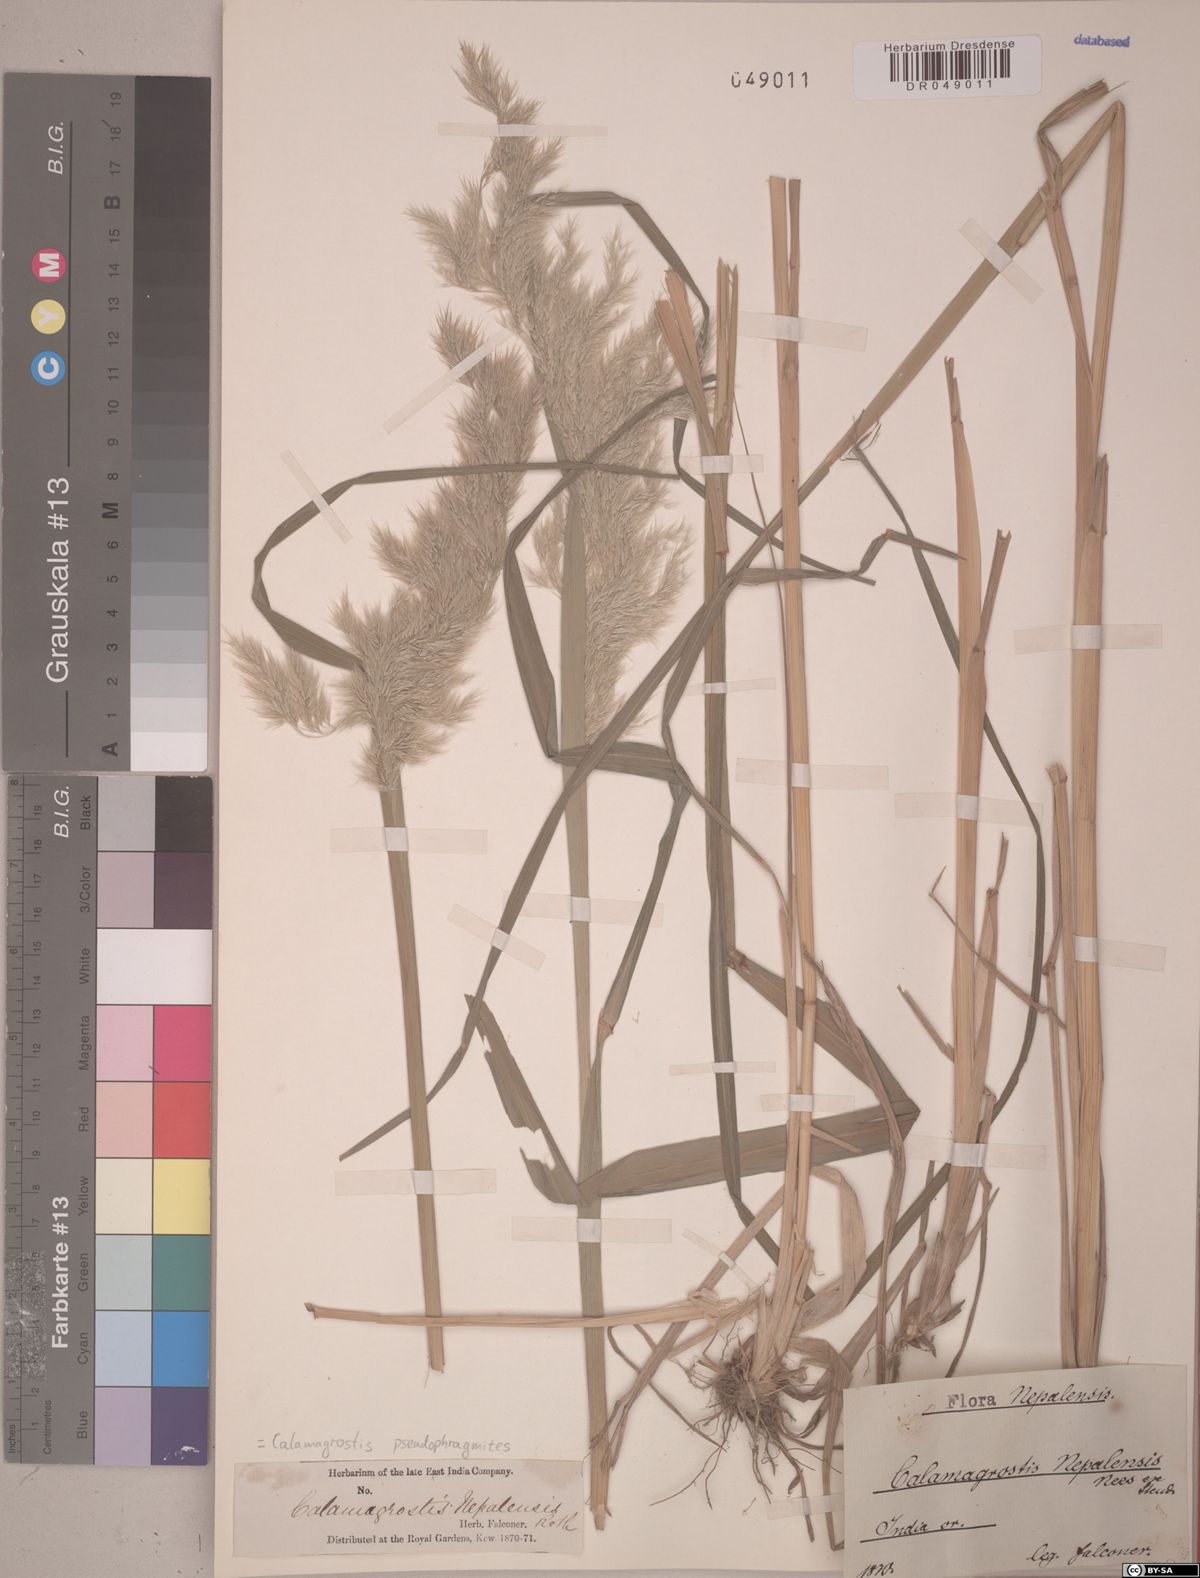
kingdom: Plantae
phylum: Tracheophyta
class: Liliopsida
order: Poales
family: Poaceae
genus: Calamagrostis
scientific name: Calamagrostis pseudophragmites
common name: Coastal small-reed
